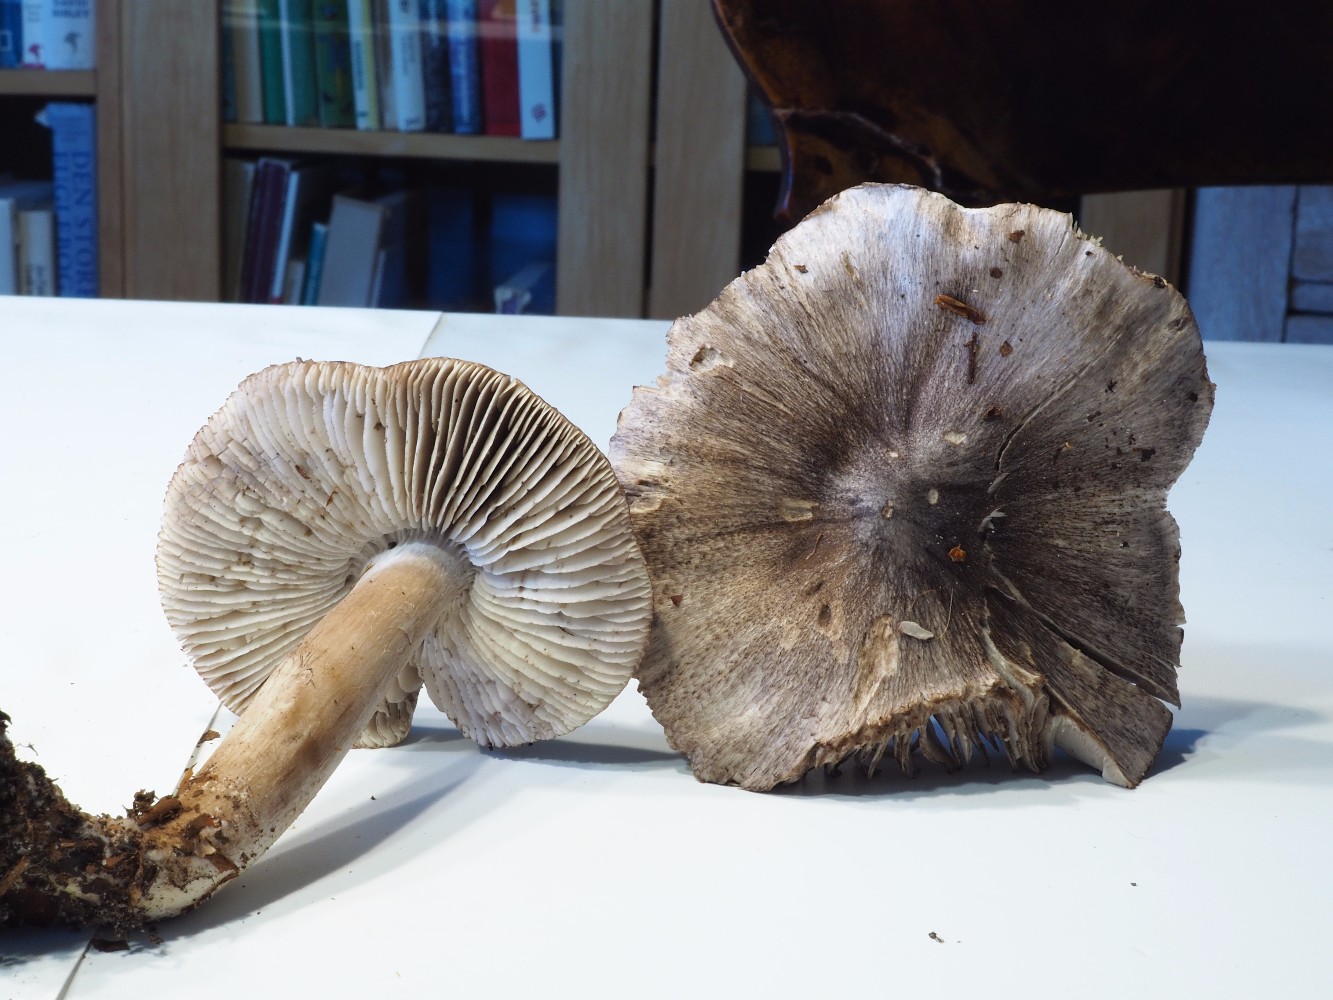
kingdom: Fungi
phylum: Basidiomycota
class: Agaricomycetes
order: Agaricales
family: Tricholomataceae
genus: Tricholoma
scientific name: Tricholoma sciodes
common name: stribet ridderhat
